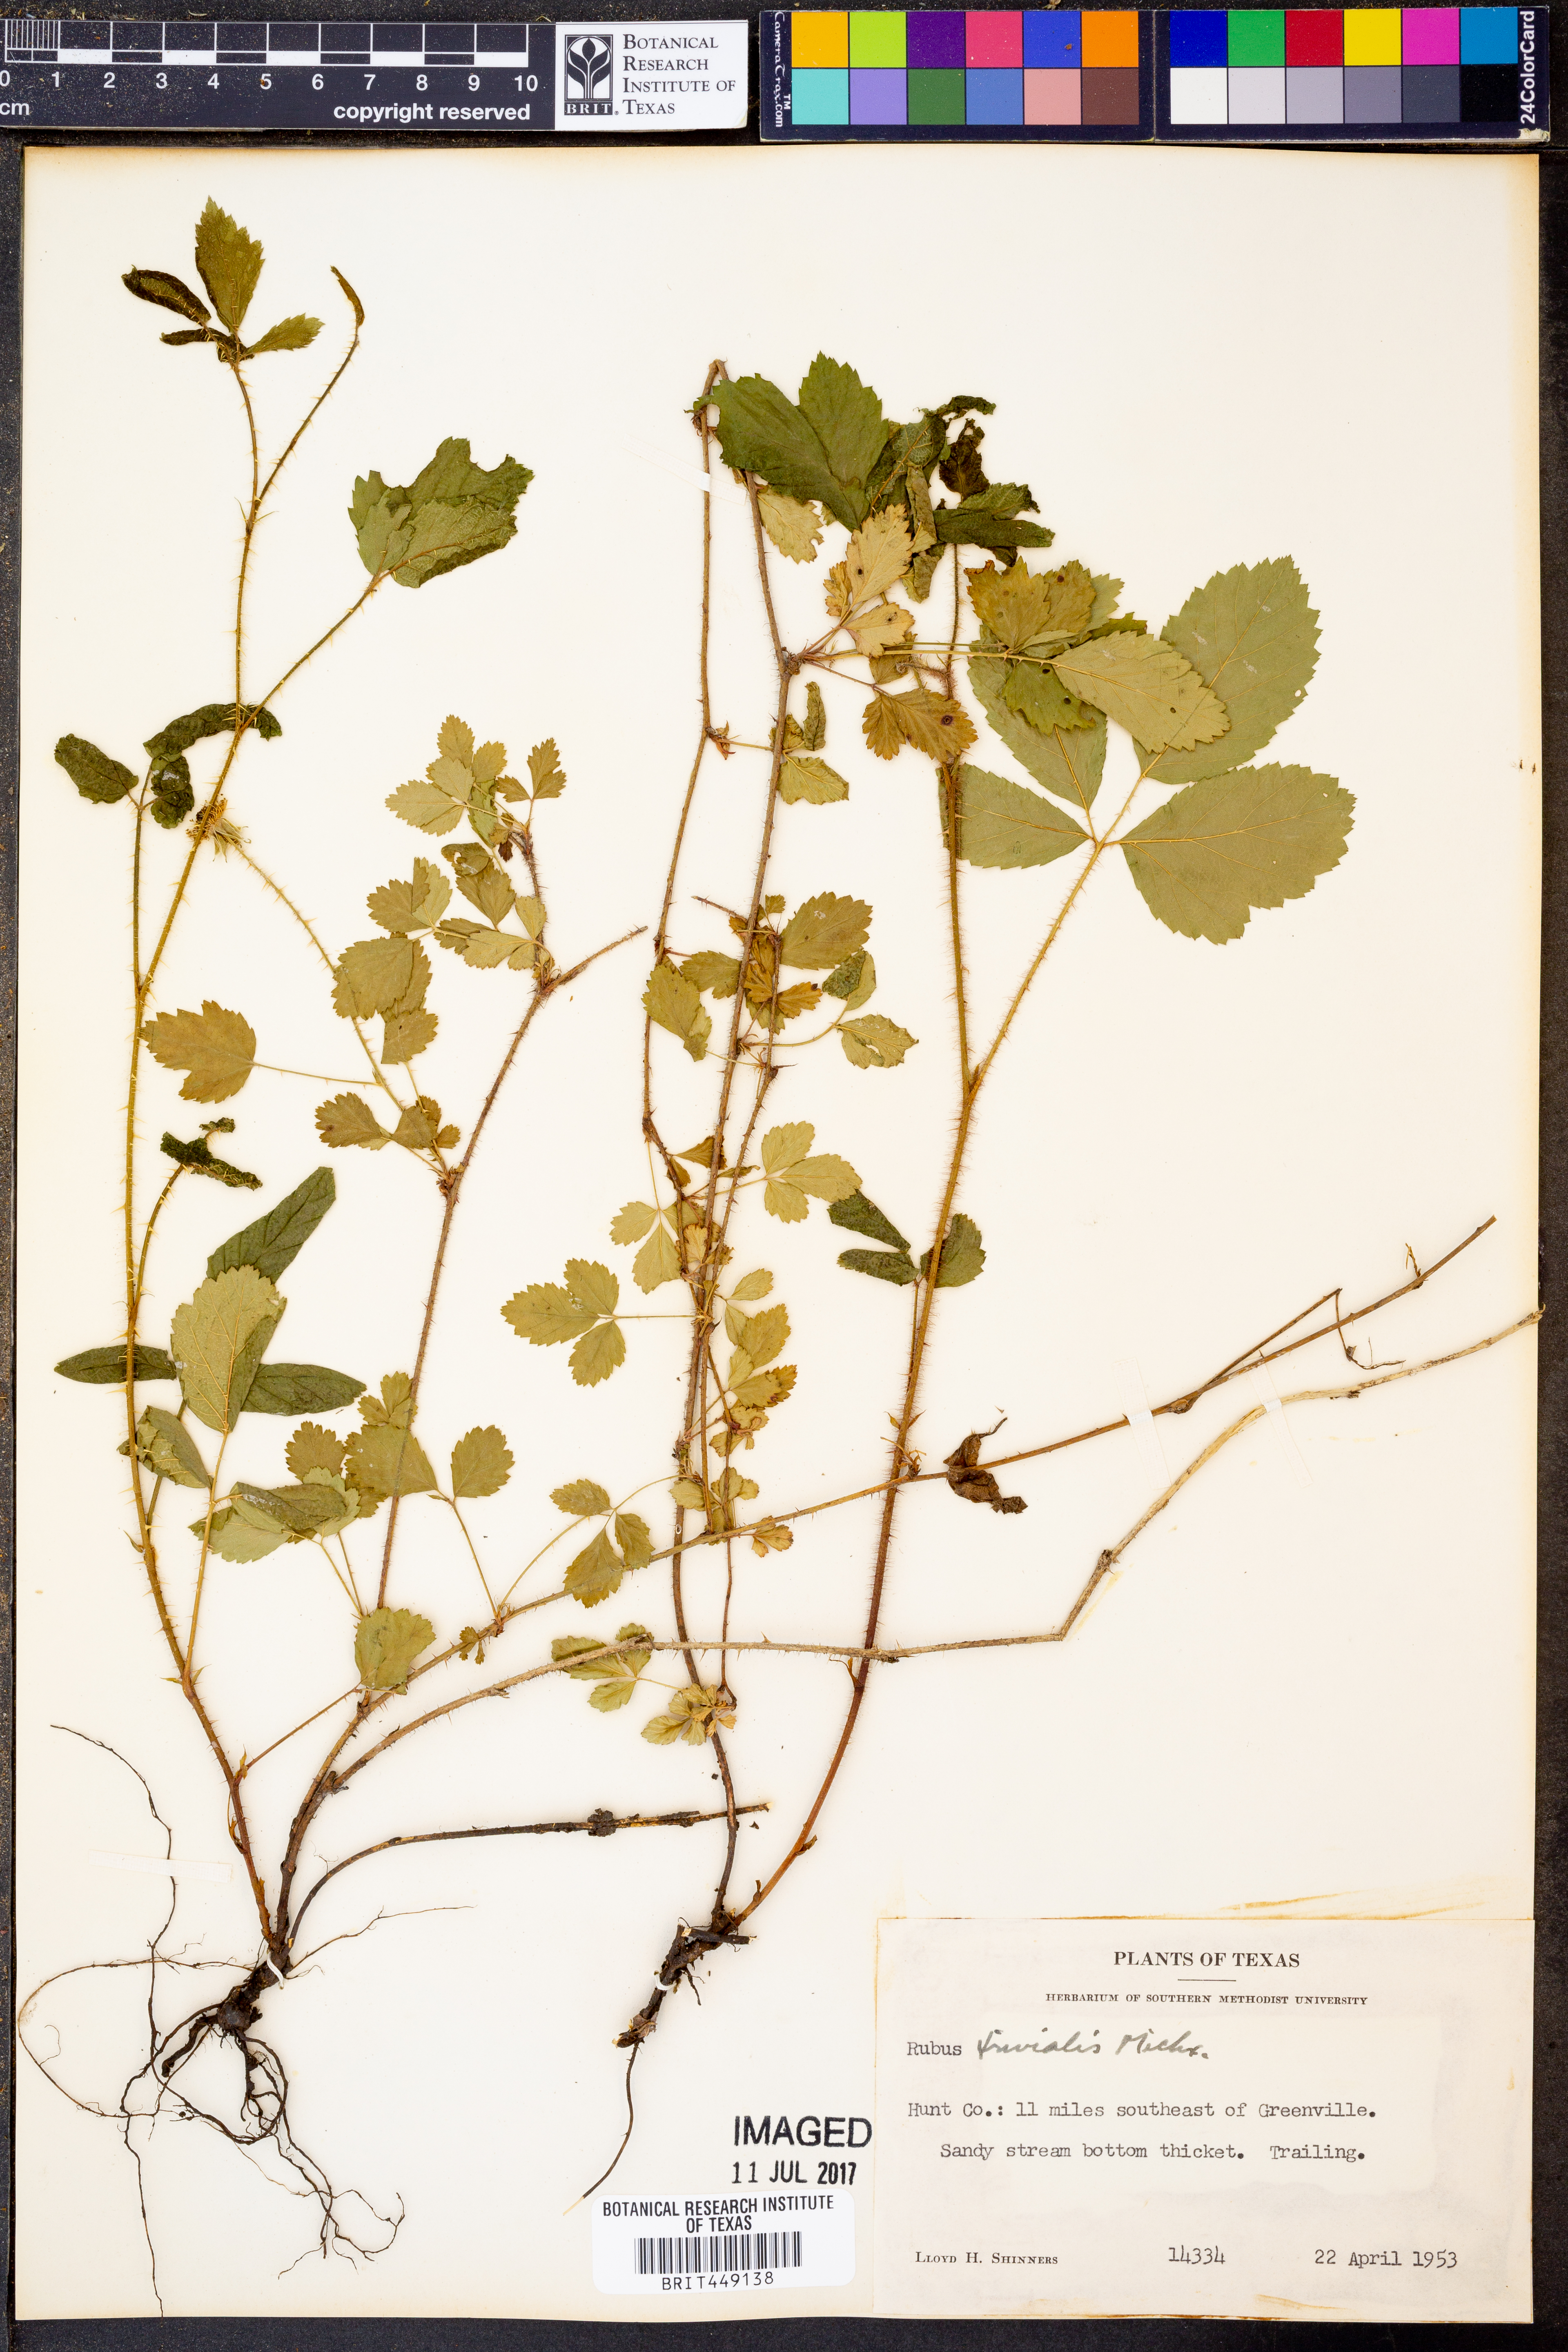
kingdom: Plantae
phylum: Tracheophyta
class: Magnoliopsida
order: Rosales
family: Rosaceae
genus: Rubus
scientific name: Rubus trivialis
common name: Southern dewberry
